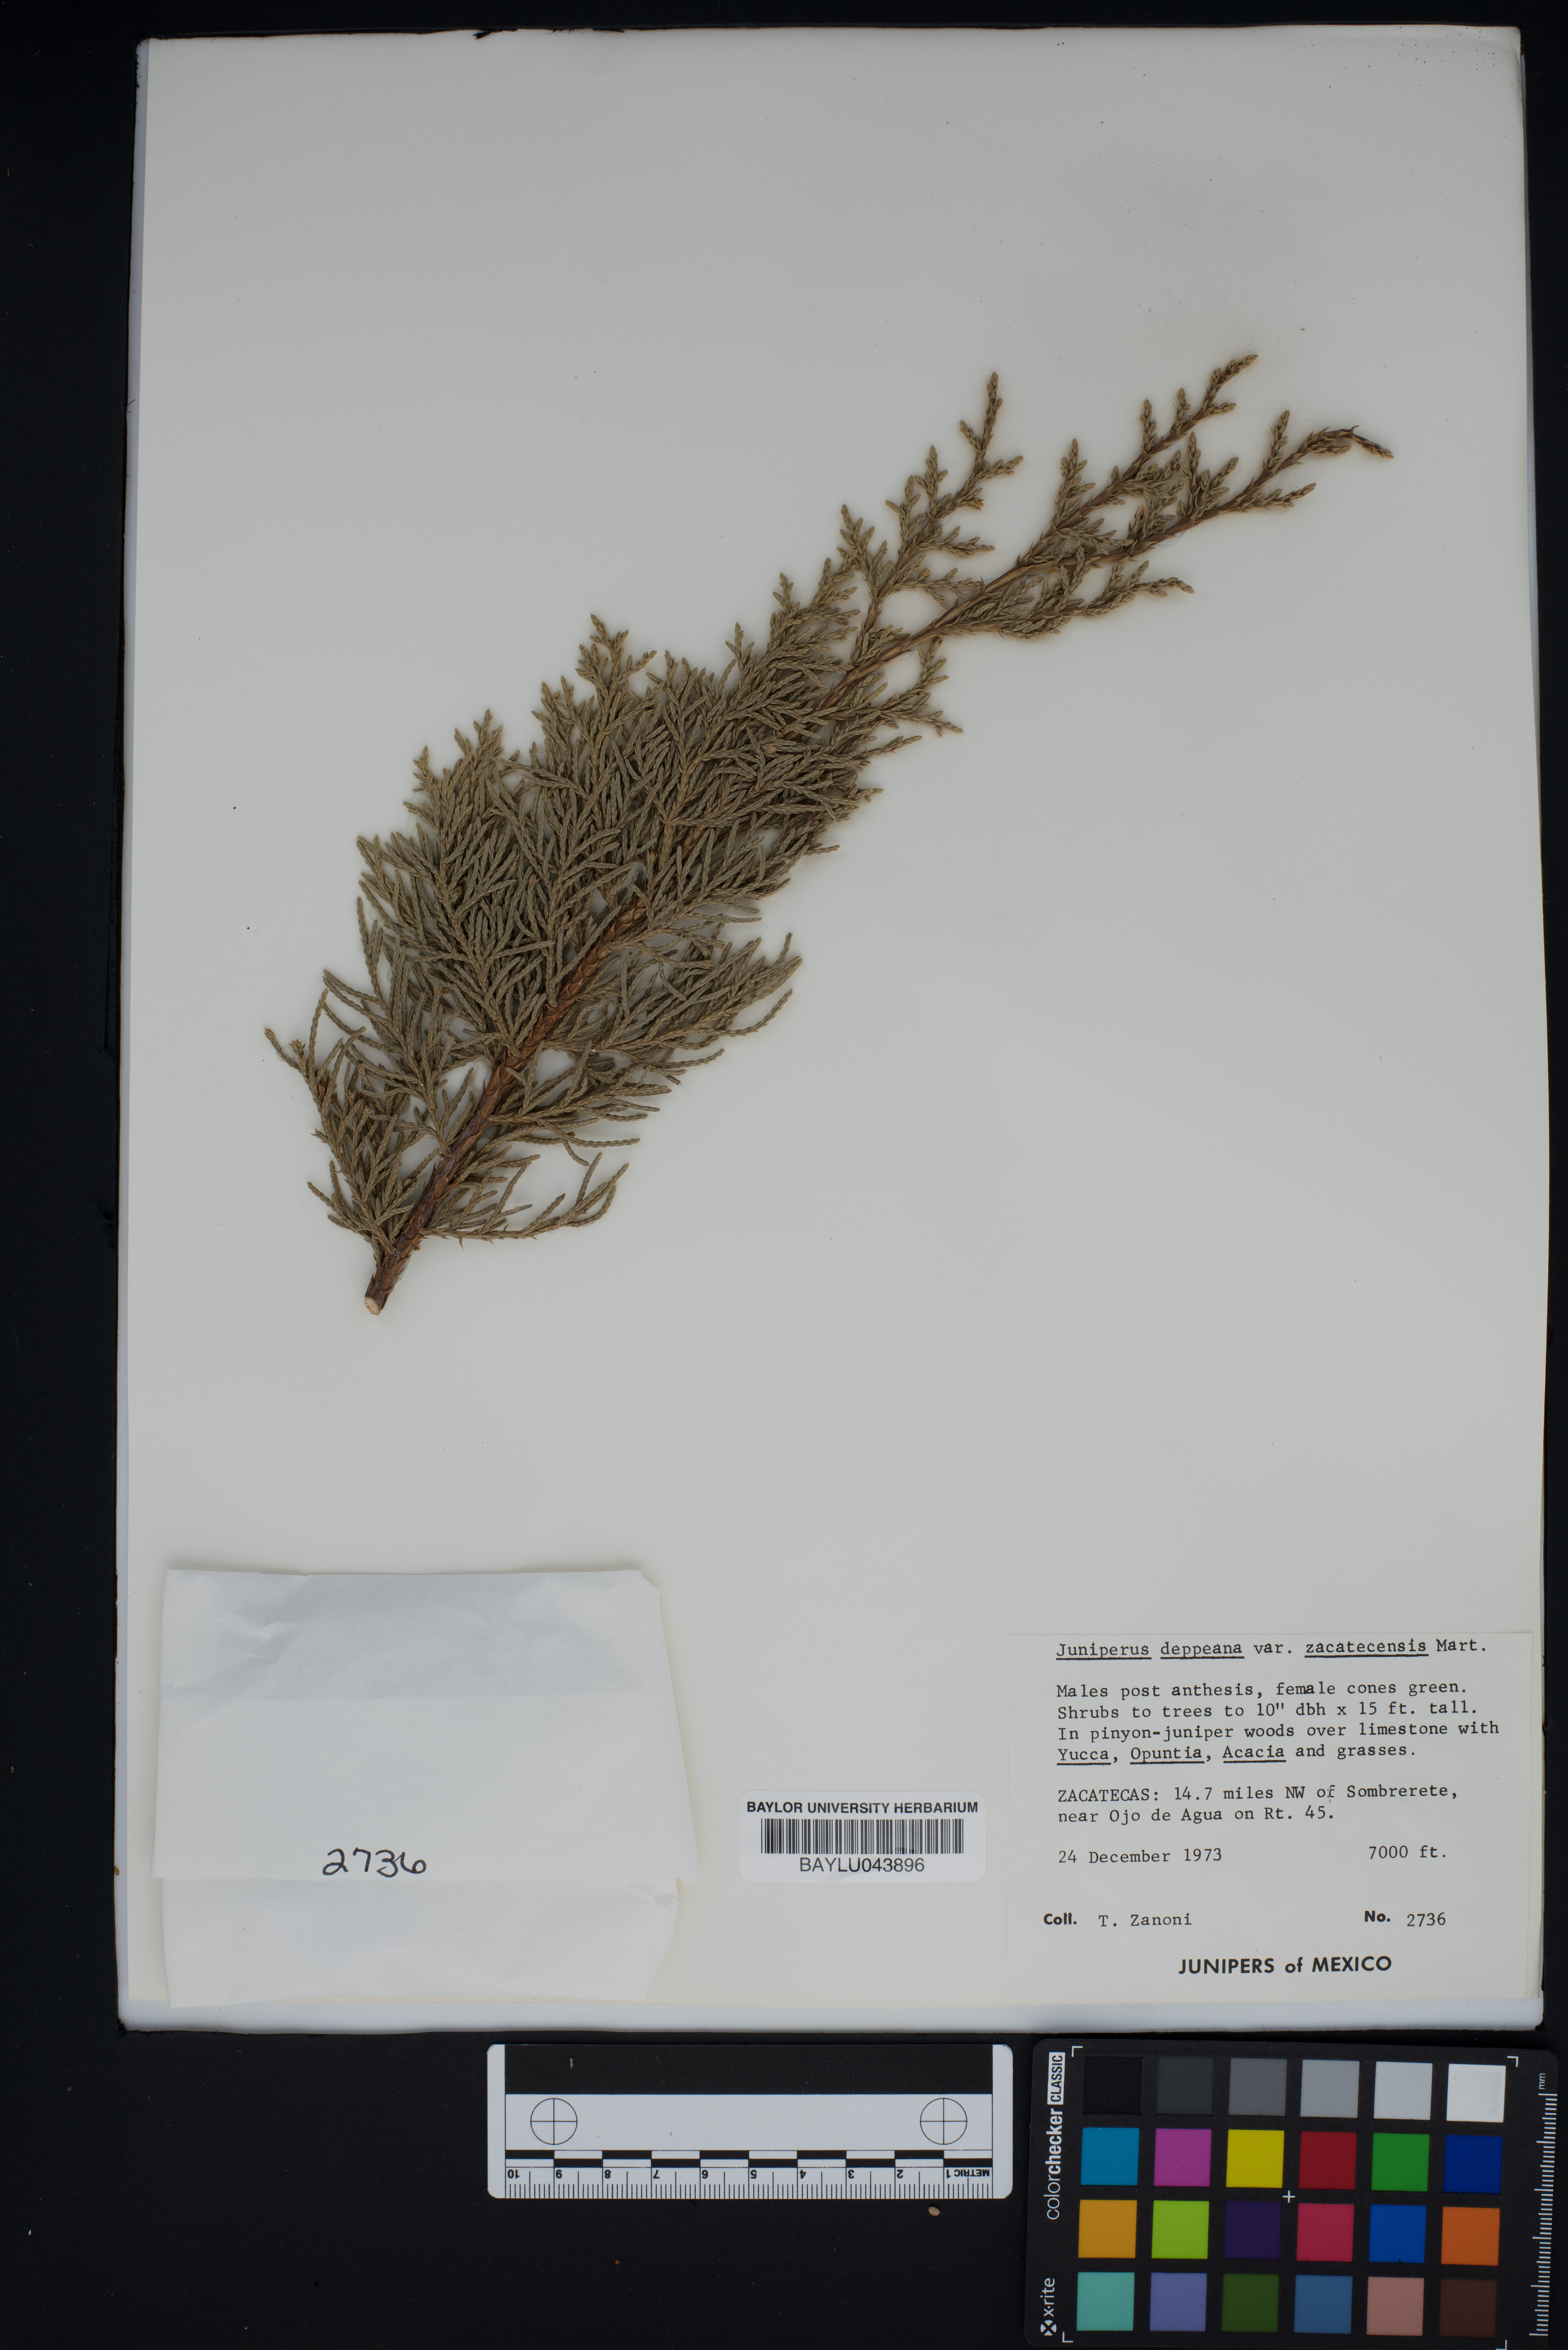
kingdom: Plantae
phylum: Tracheophyta
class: Pinopsida
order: Pinales
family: Cupressaceae
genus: Juniperus
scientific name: Juniperus deppeana
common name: Alligator juniper
